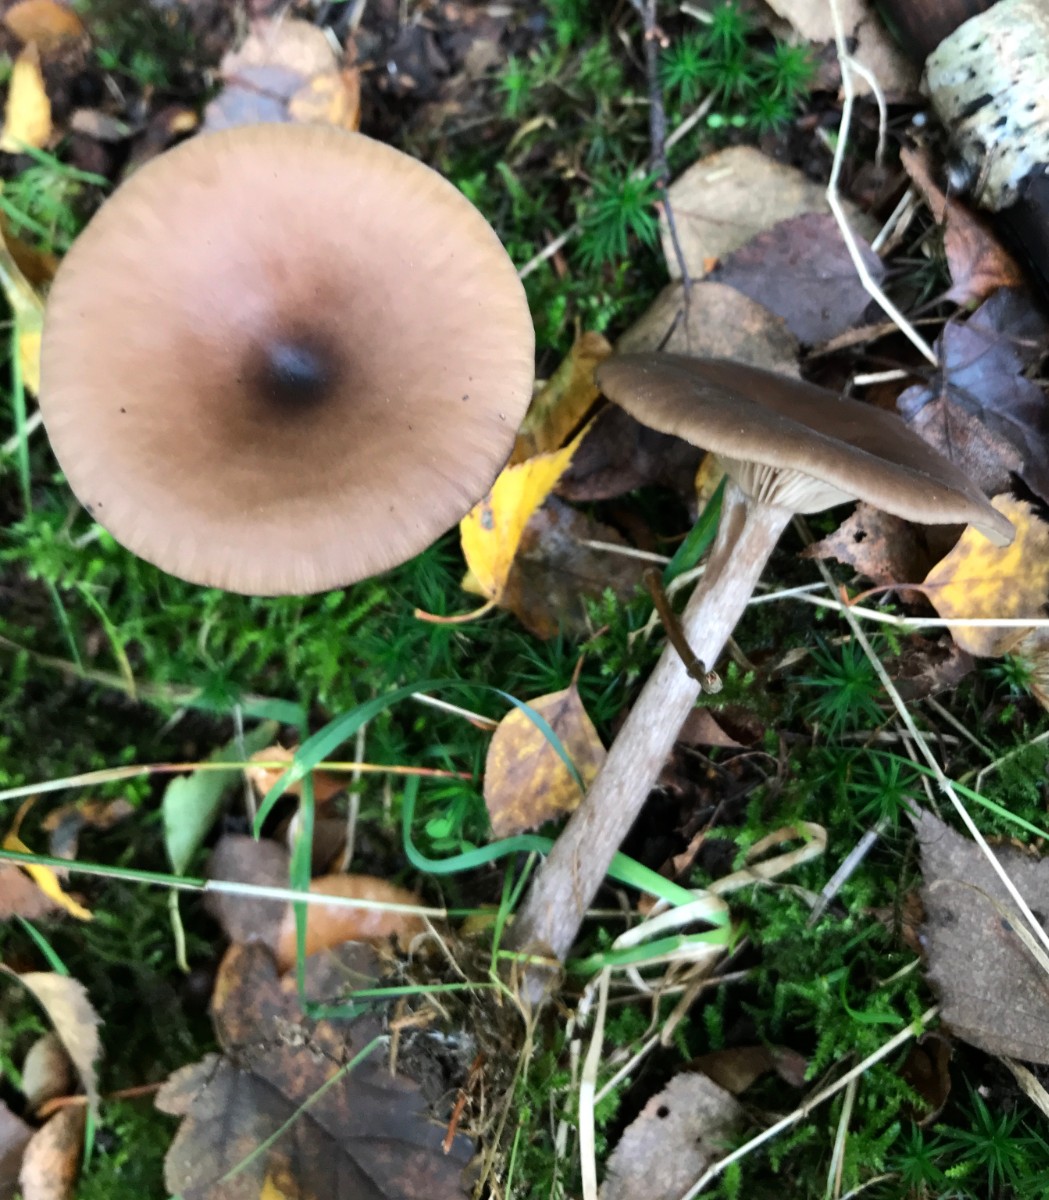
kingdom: Fungi
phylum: Basidiomycota
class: Agaricomycetes
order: Agaricales
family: Pseudoclitocybaceae
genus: Pseudoclitocybe
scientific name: Pseudoclitocybe cyathiformis
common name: almindelig bægertragthat
